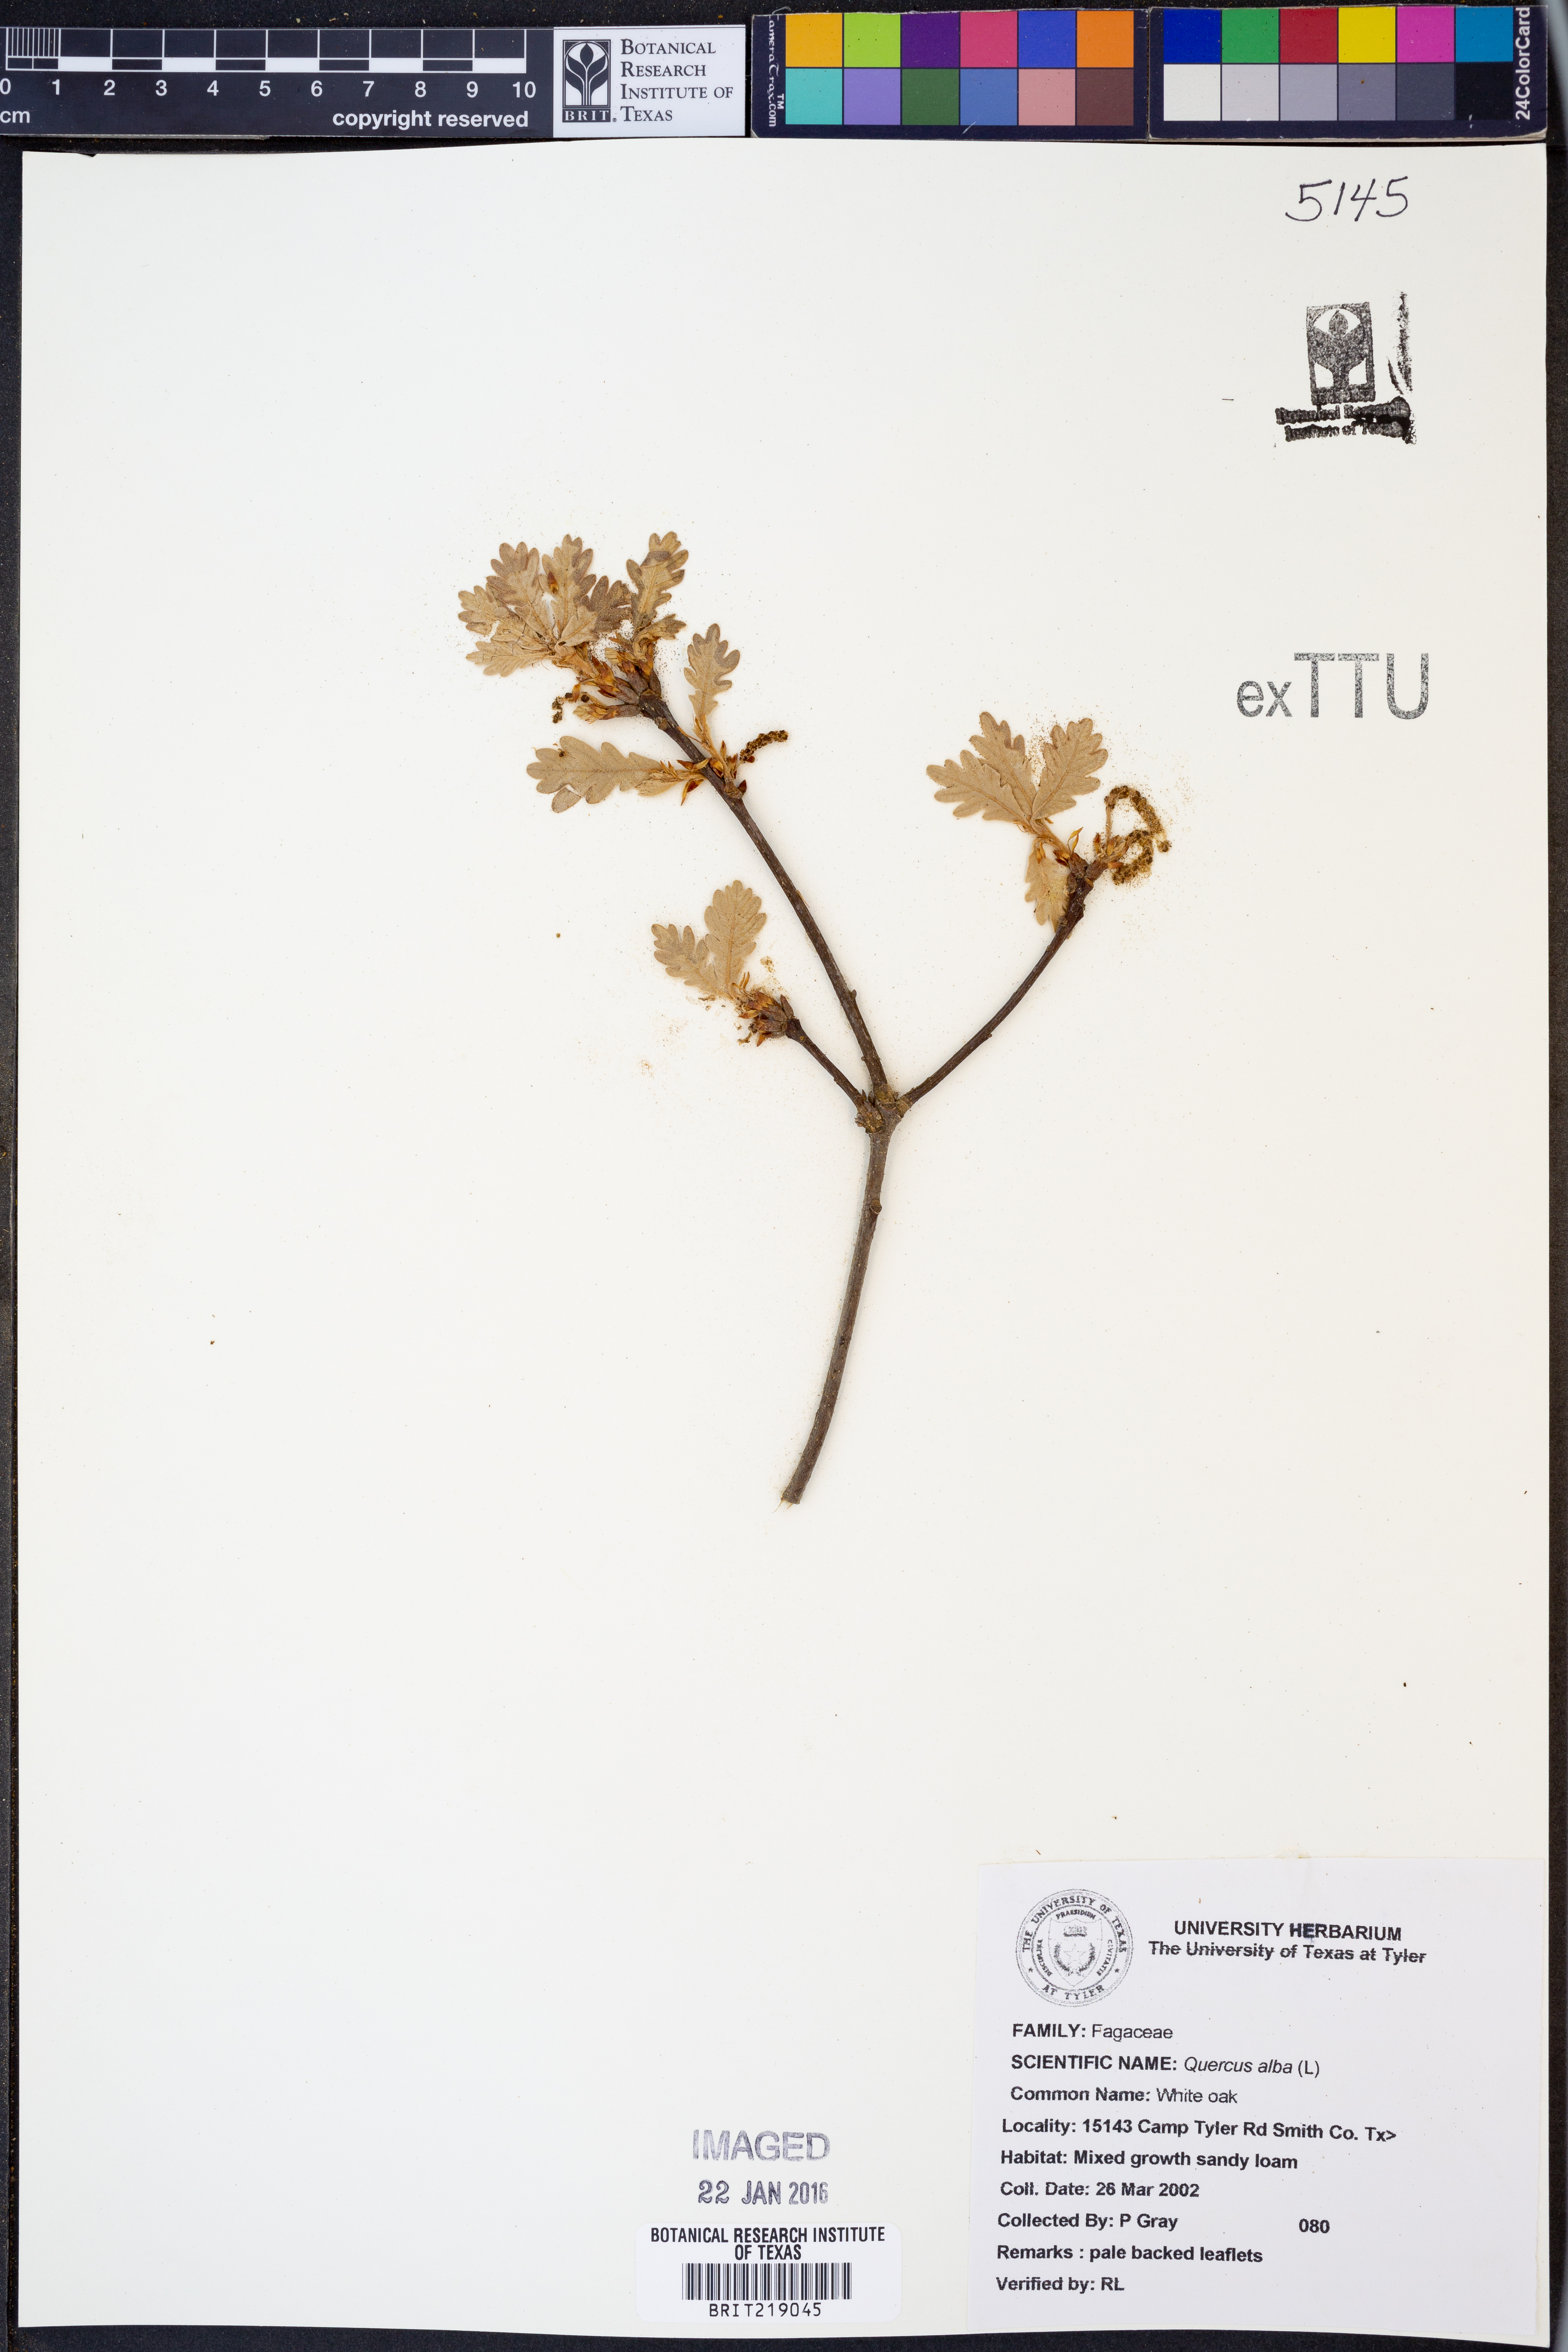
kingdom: Plantae
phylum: Tracheophyta
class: Magnoliopsida
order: Fagales
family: Fagaceae
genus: Quercus
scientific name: Quercus alba
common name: White oak
